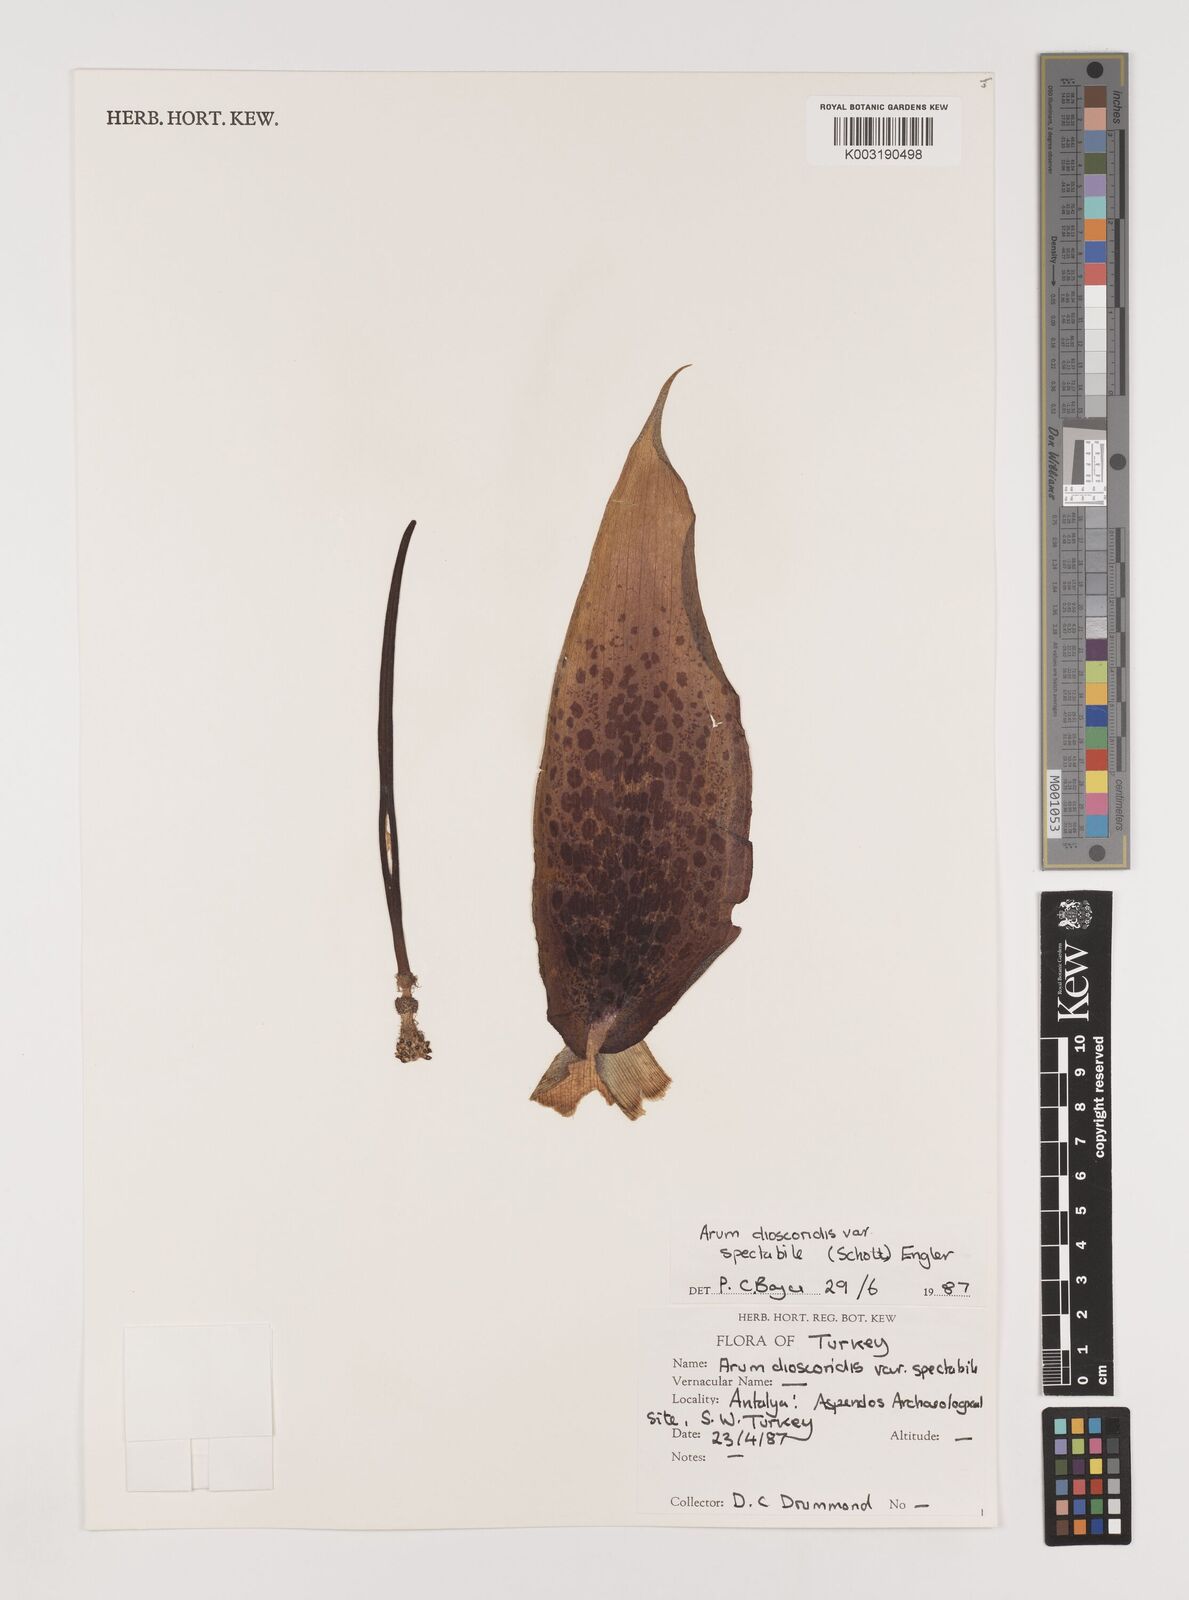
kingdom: Plantae
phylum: Tracheophyta
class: Liliopsida
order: Alismatales
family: Araceae
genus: Arum
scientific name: Arum dioscoridis
